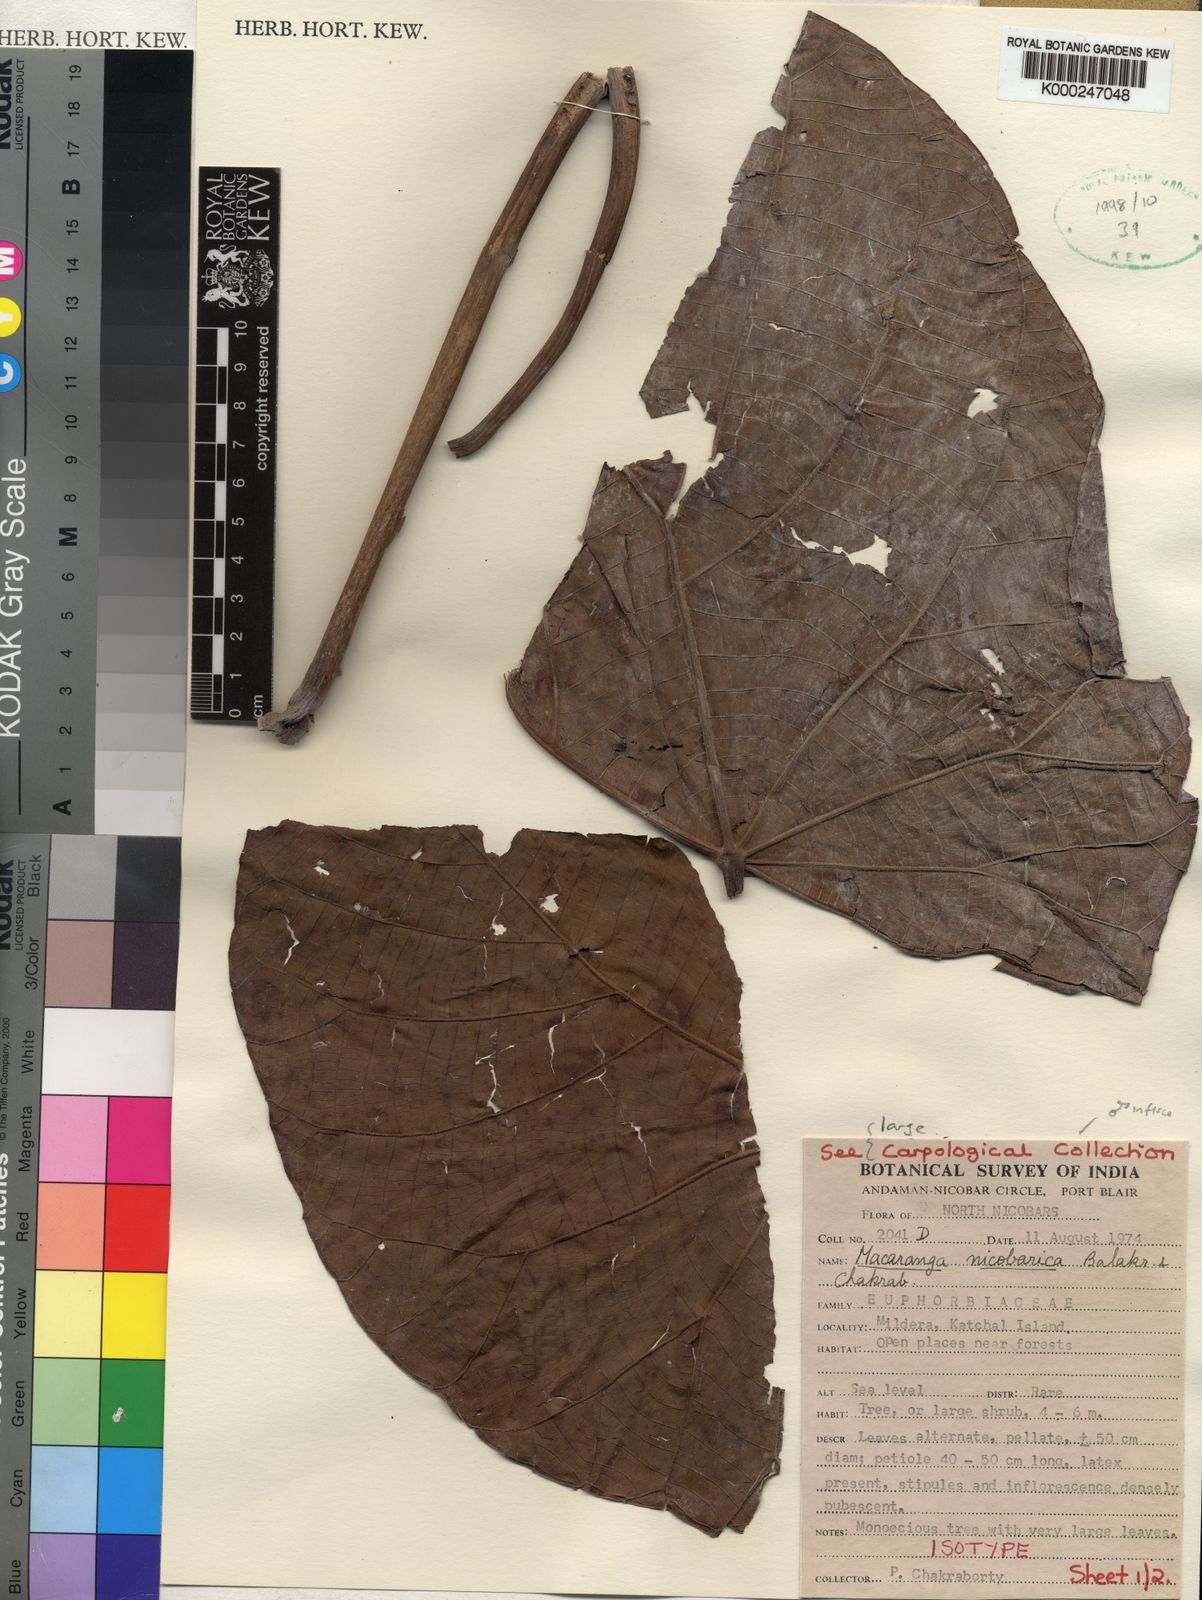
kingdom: Plantae
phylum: Tracheophyta
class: Magnoliopsida
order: Malpighiales
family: Euphorbiaceae
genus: Macaranga
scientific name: Macaranga nicobarica
